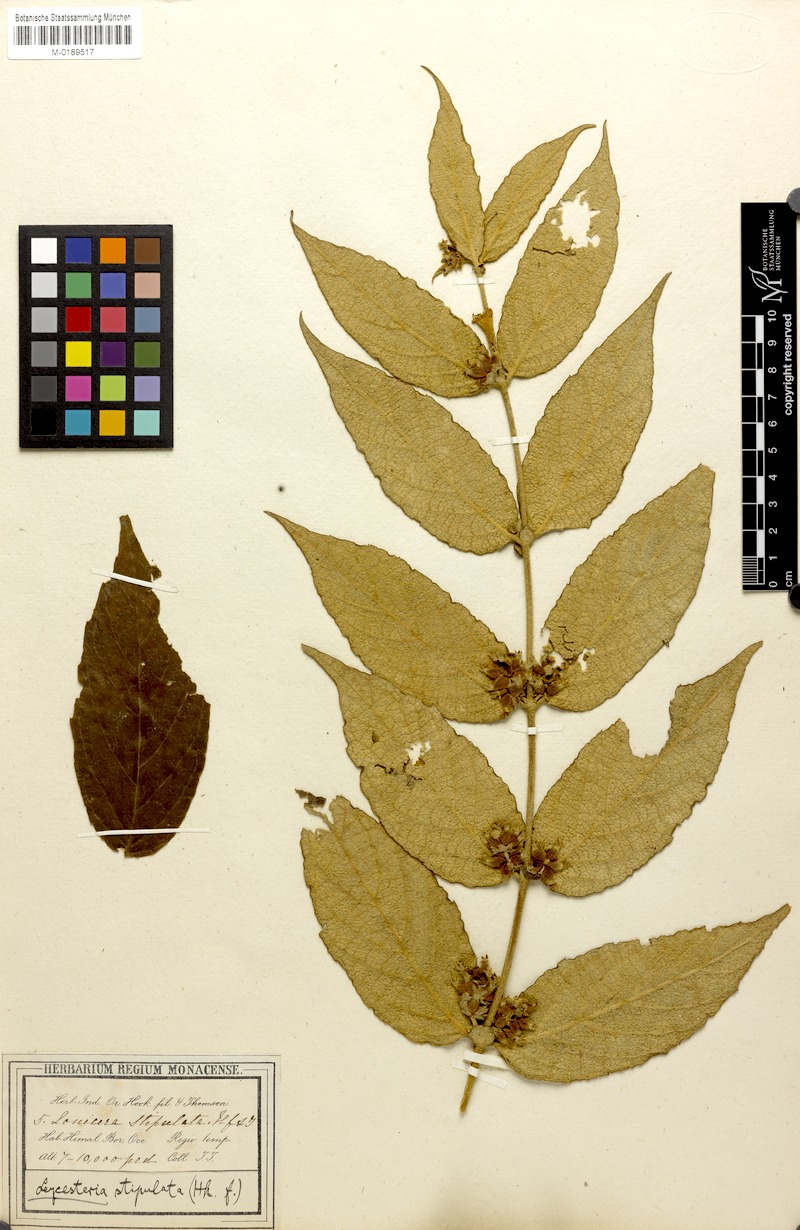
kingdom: Plantae
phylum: Tracheophyta
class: Magnoliopsida
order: Dipsacales
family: Caprifoliaceae
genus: Leycesteria
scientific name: Leycesteria stipulata
